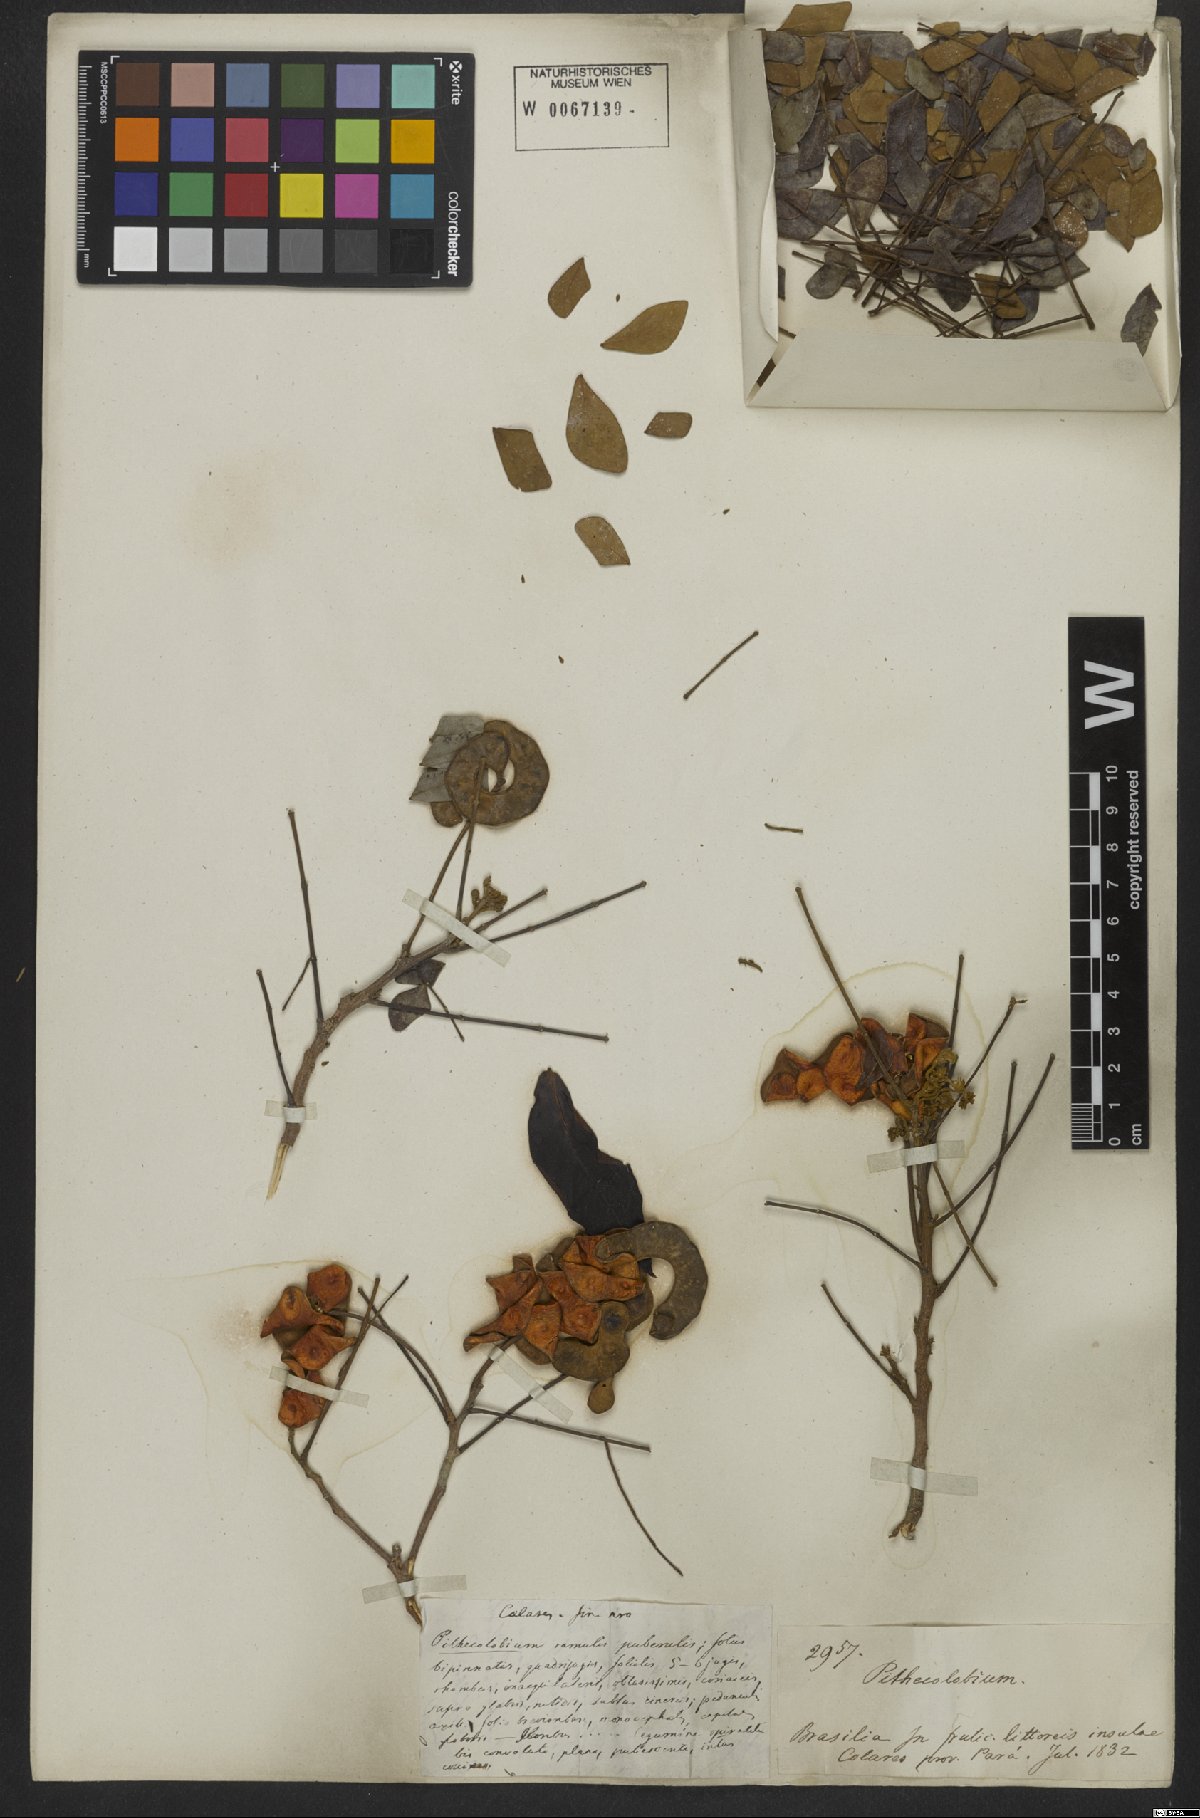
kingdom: Plantae
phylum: Tracheophyta
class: Magnoliopsida
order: Fabales
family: Fabaceae
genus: Jupunba
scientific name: Jupunba trapezifolia
